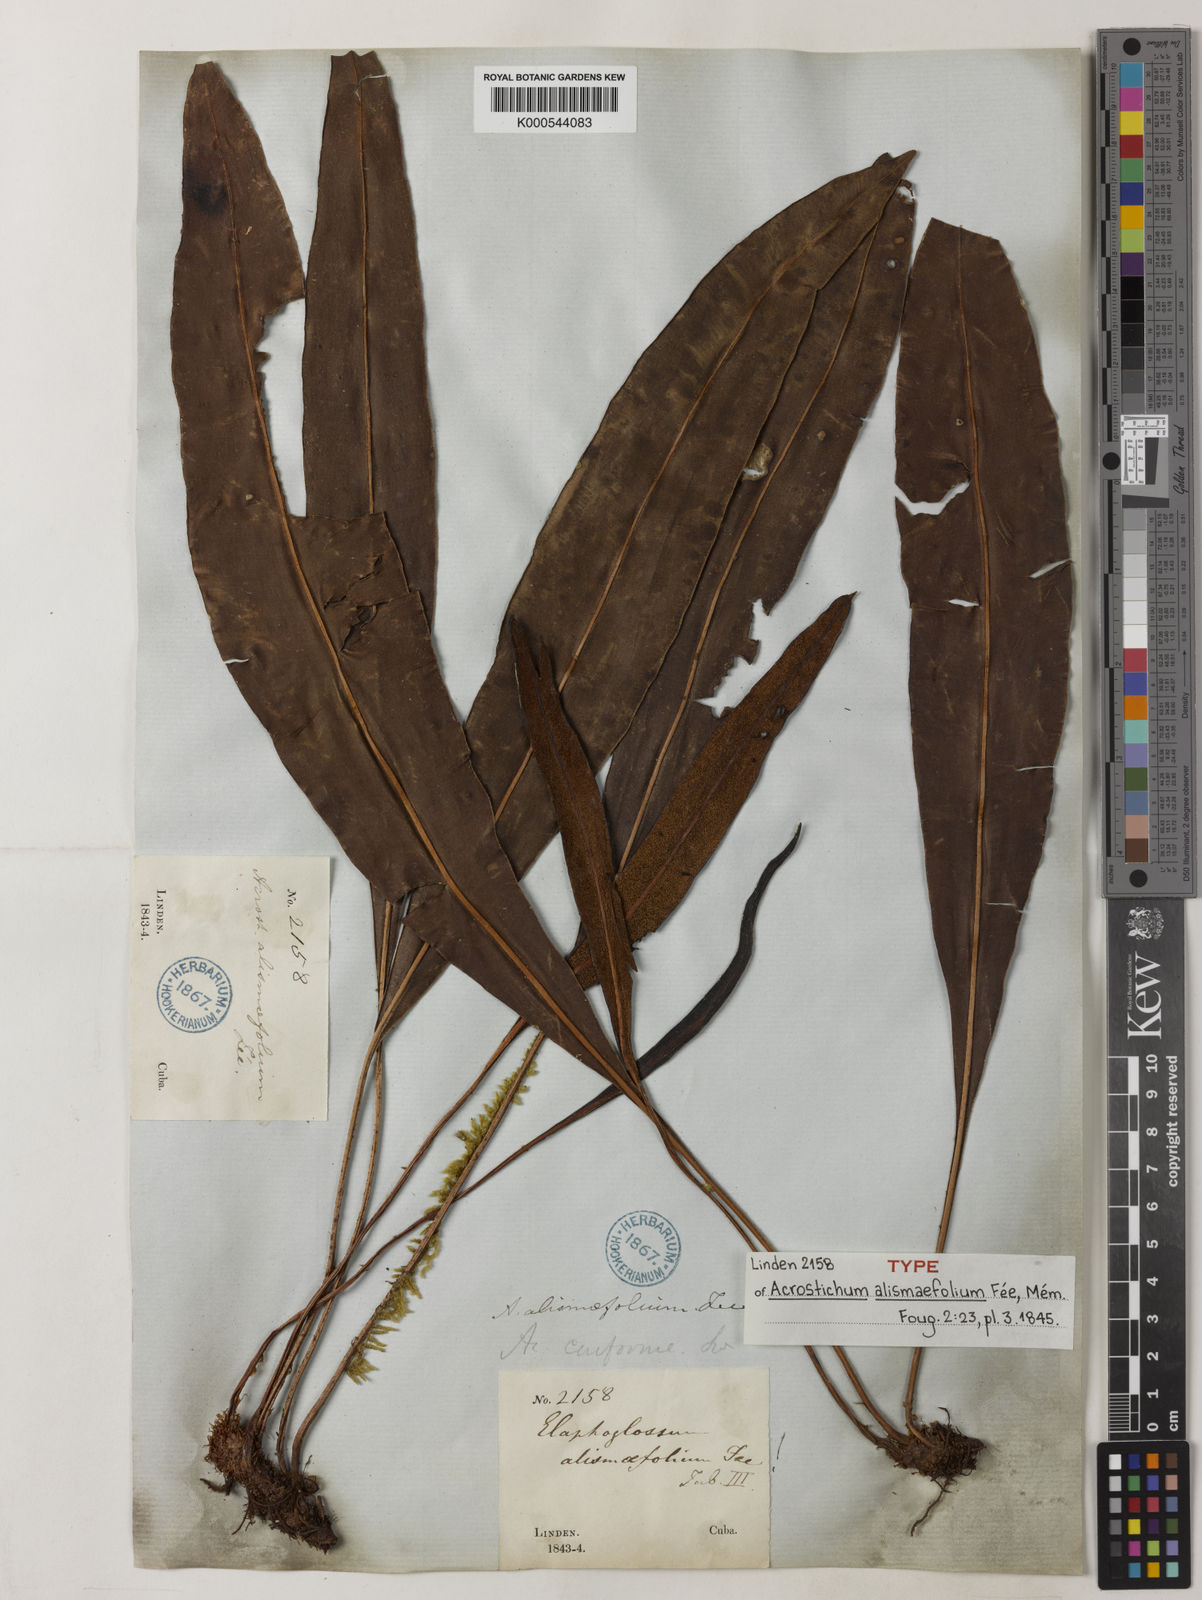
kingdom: Plantae
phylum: Tracheophyta
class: Polypodiopsida
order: Polypodiales
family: Dryopteridaceae
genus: Elaphoglossum
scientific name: Elaphoglossum andicola
